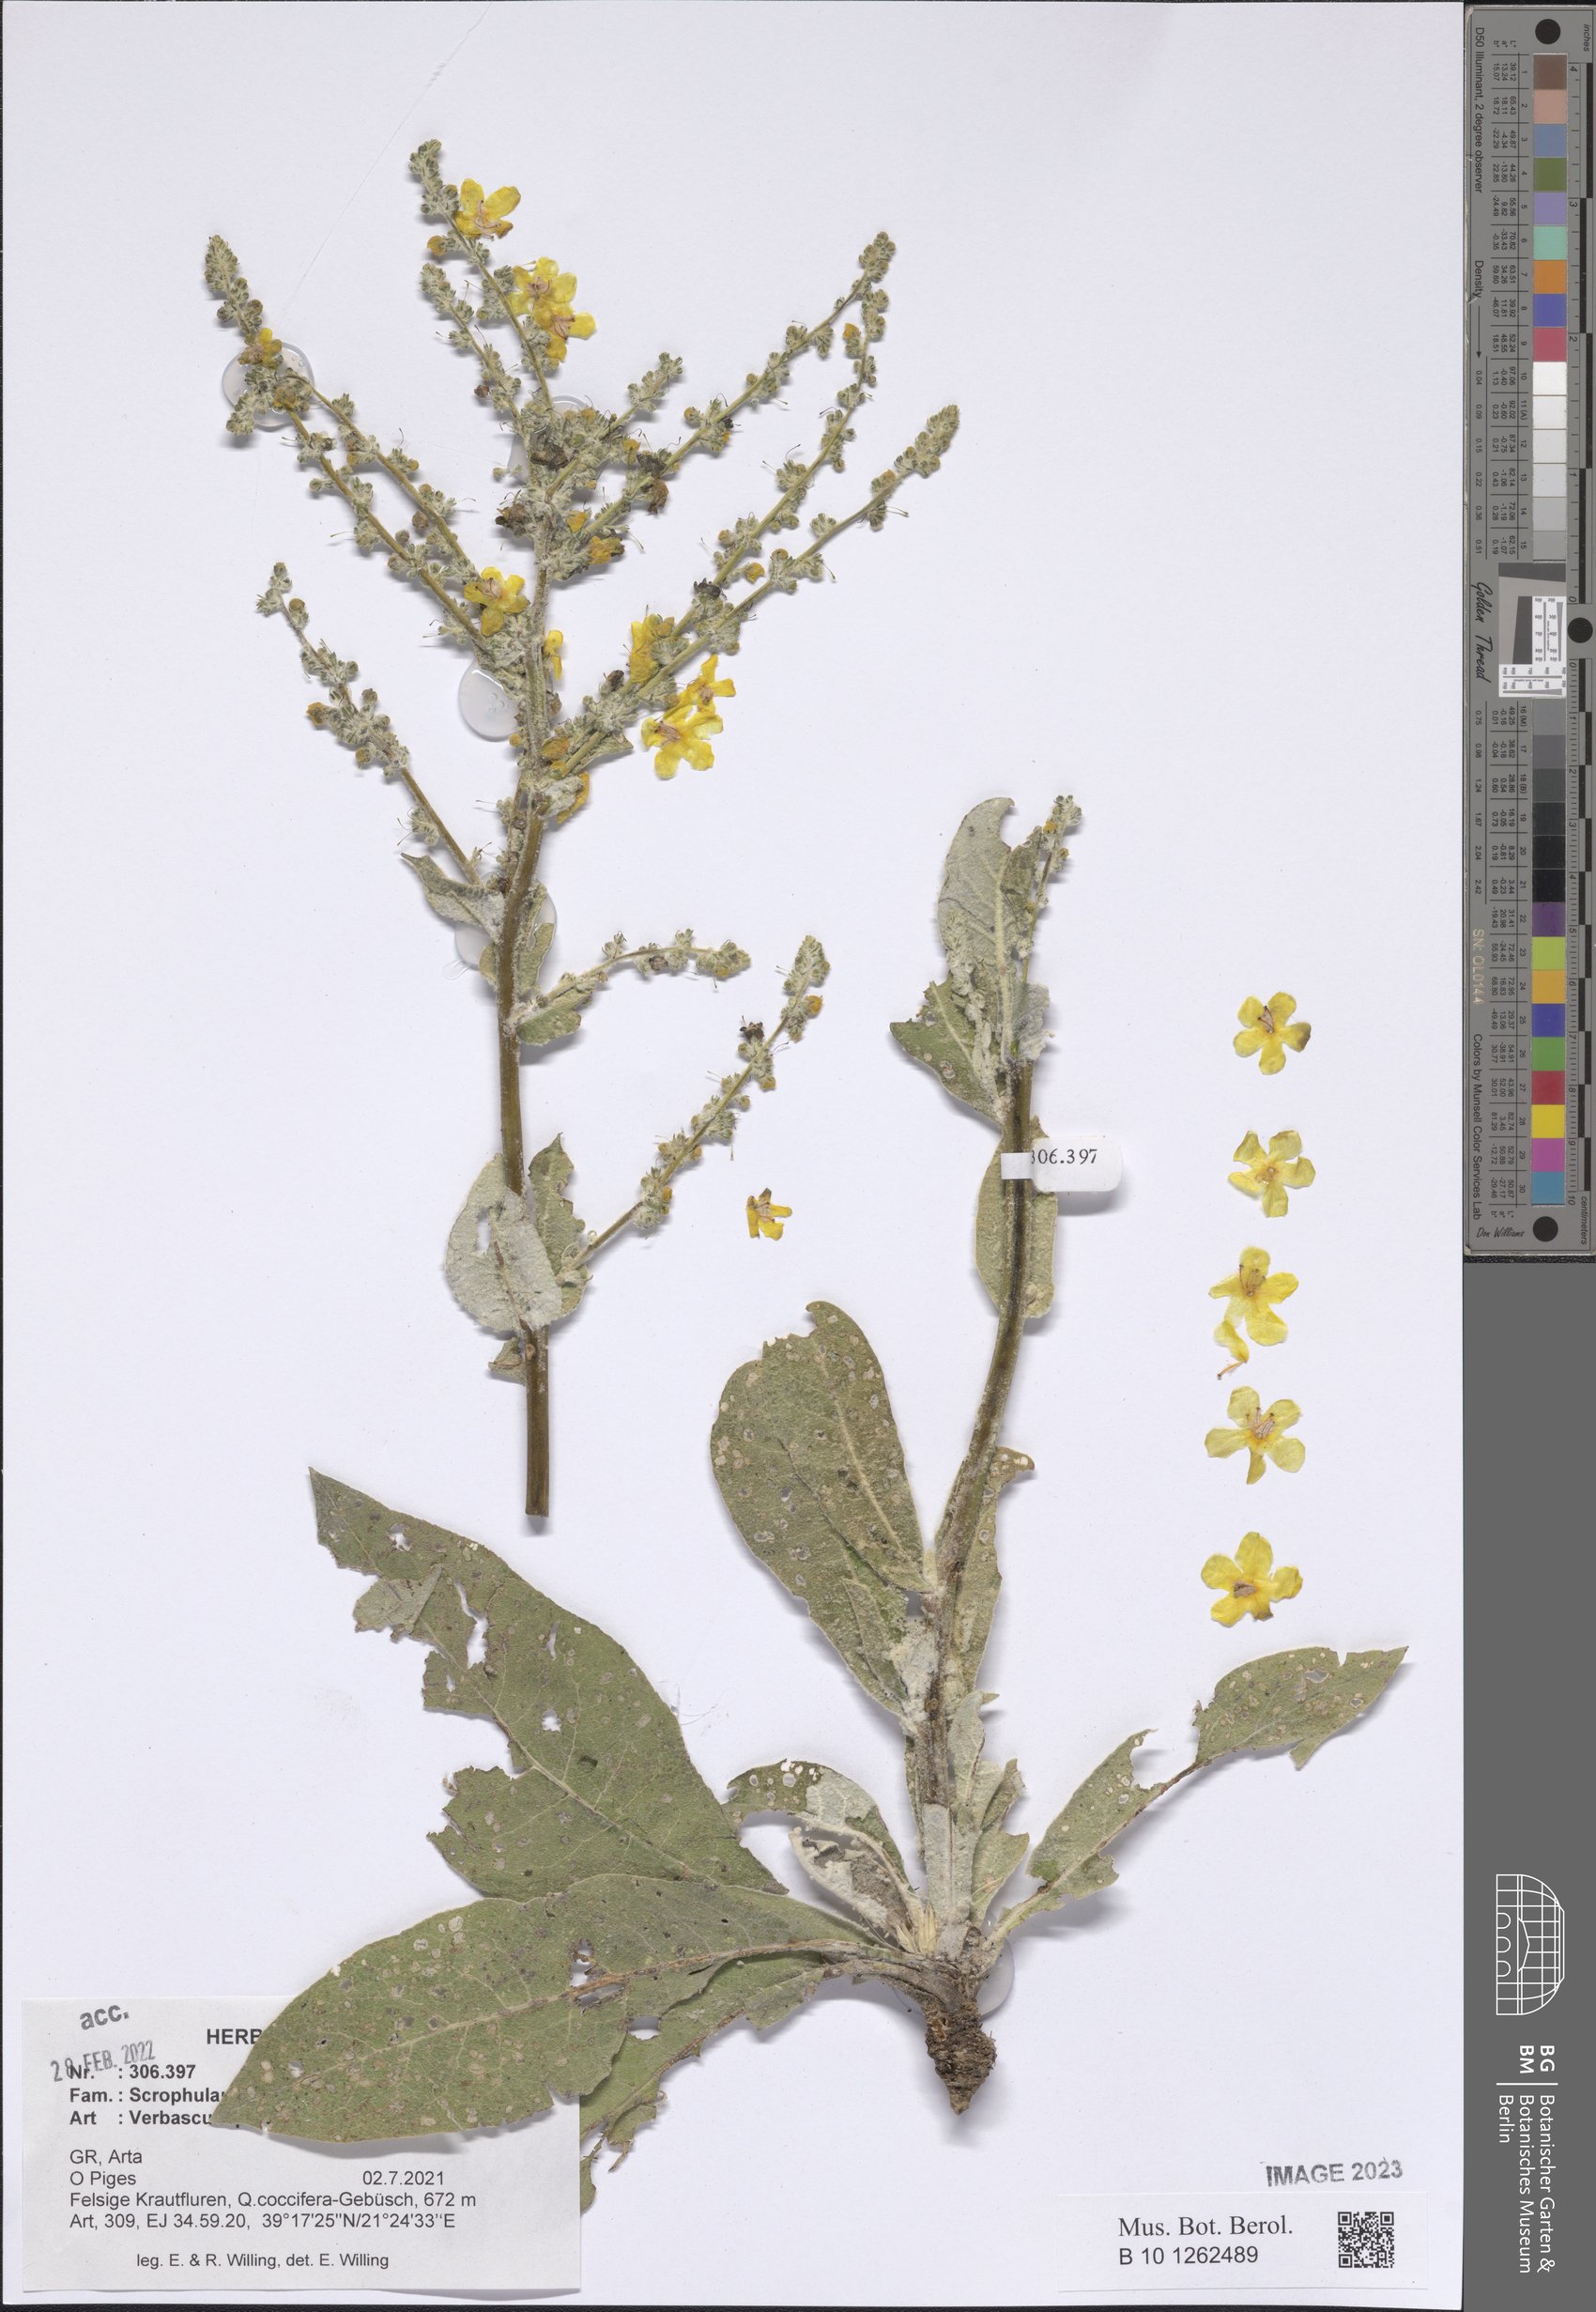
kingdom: Plantae
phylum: Tracheophyta
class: Magnoliopsida
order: Lamiales
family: Scrophulariaceae
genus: Verbascum
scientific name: Verbascum pulverulentum
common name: Broad-leaf mullein
